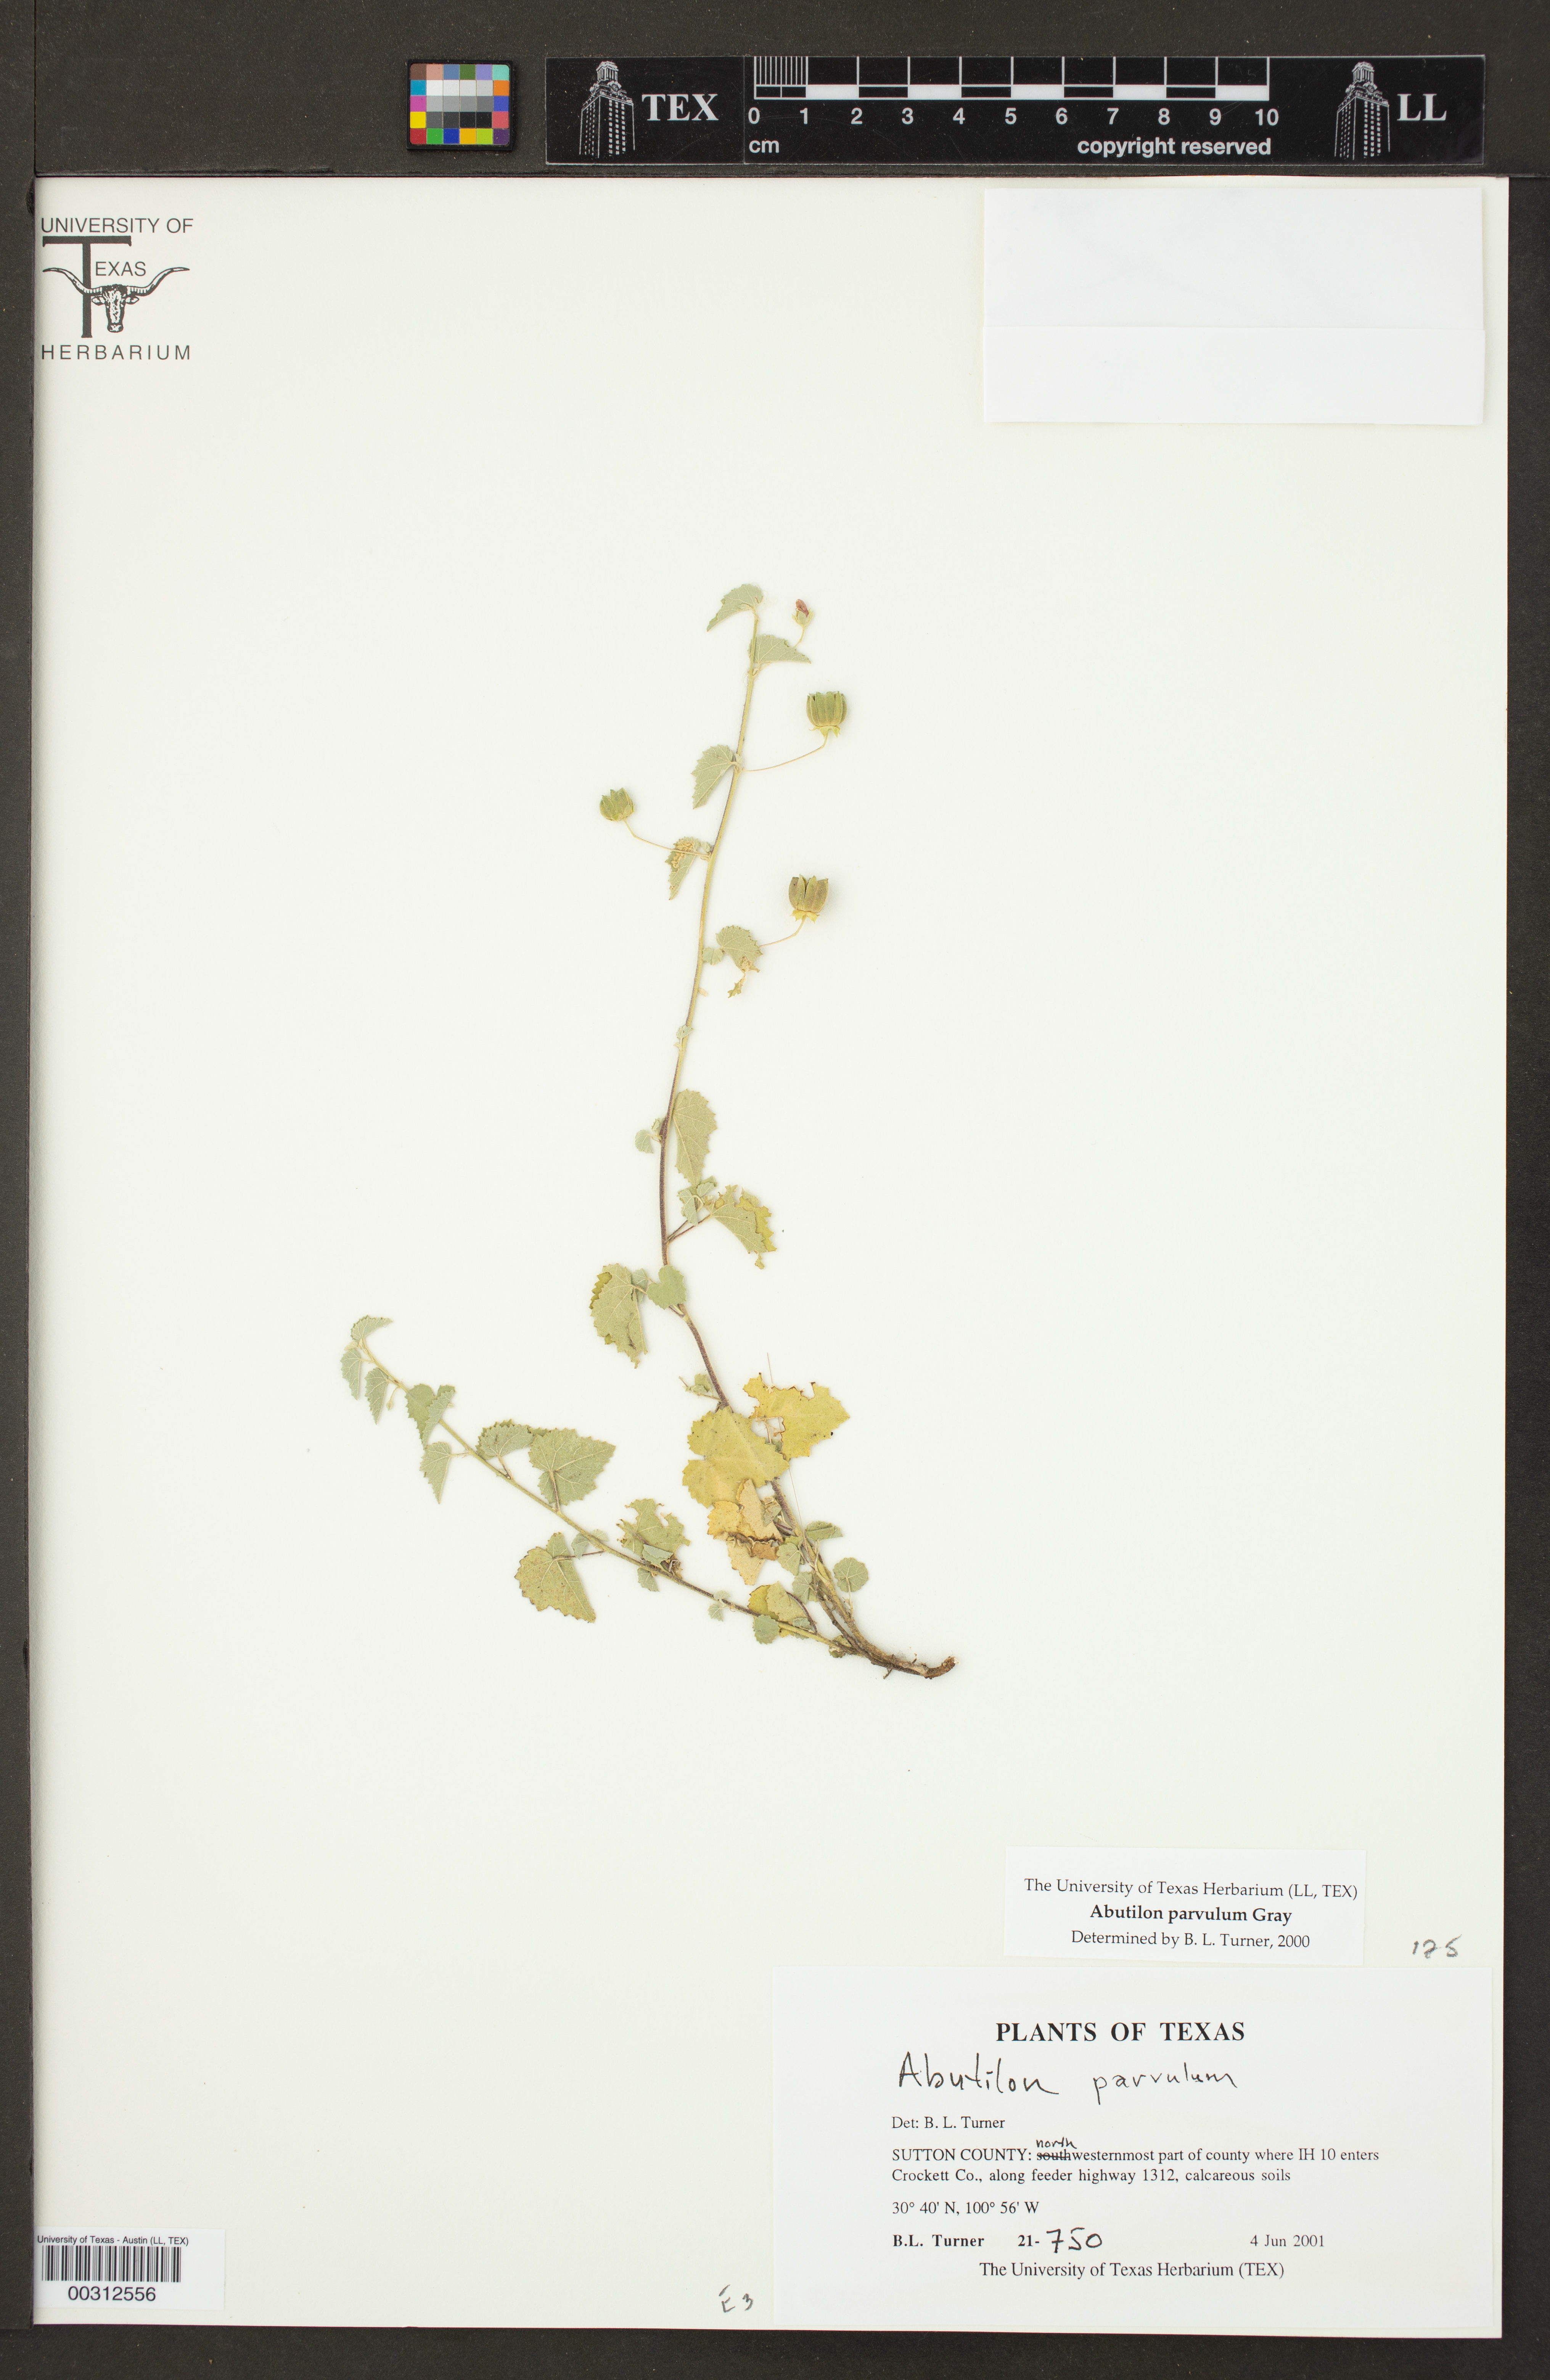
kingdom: Plantae
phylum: Tracheophyta
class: Magnoliopsida
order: Malvales
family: Malvaceae
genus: Abutilon
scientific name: Abutilon parvulum
